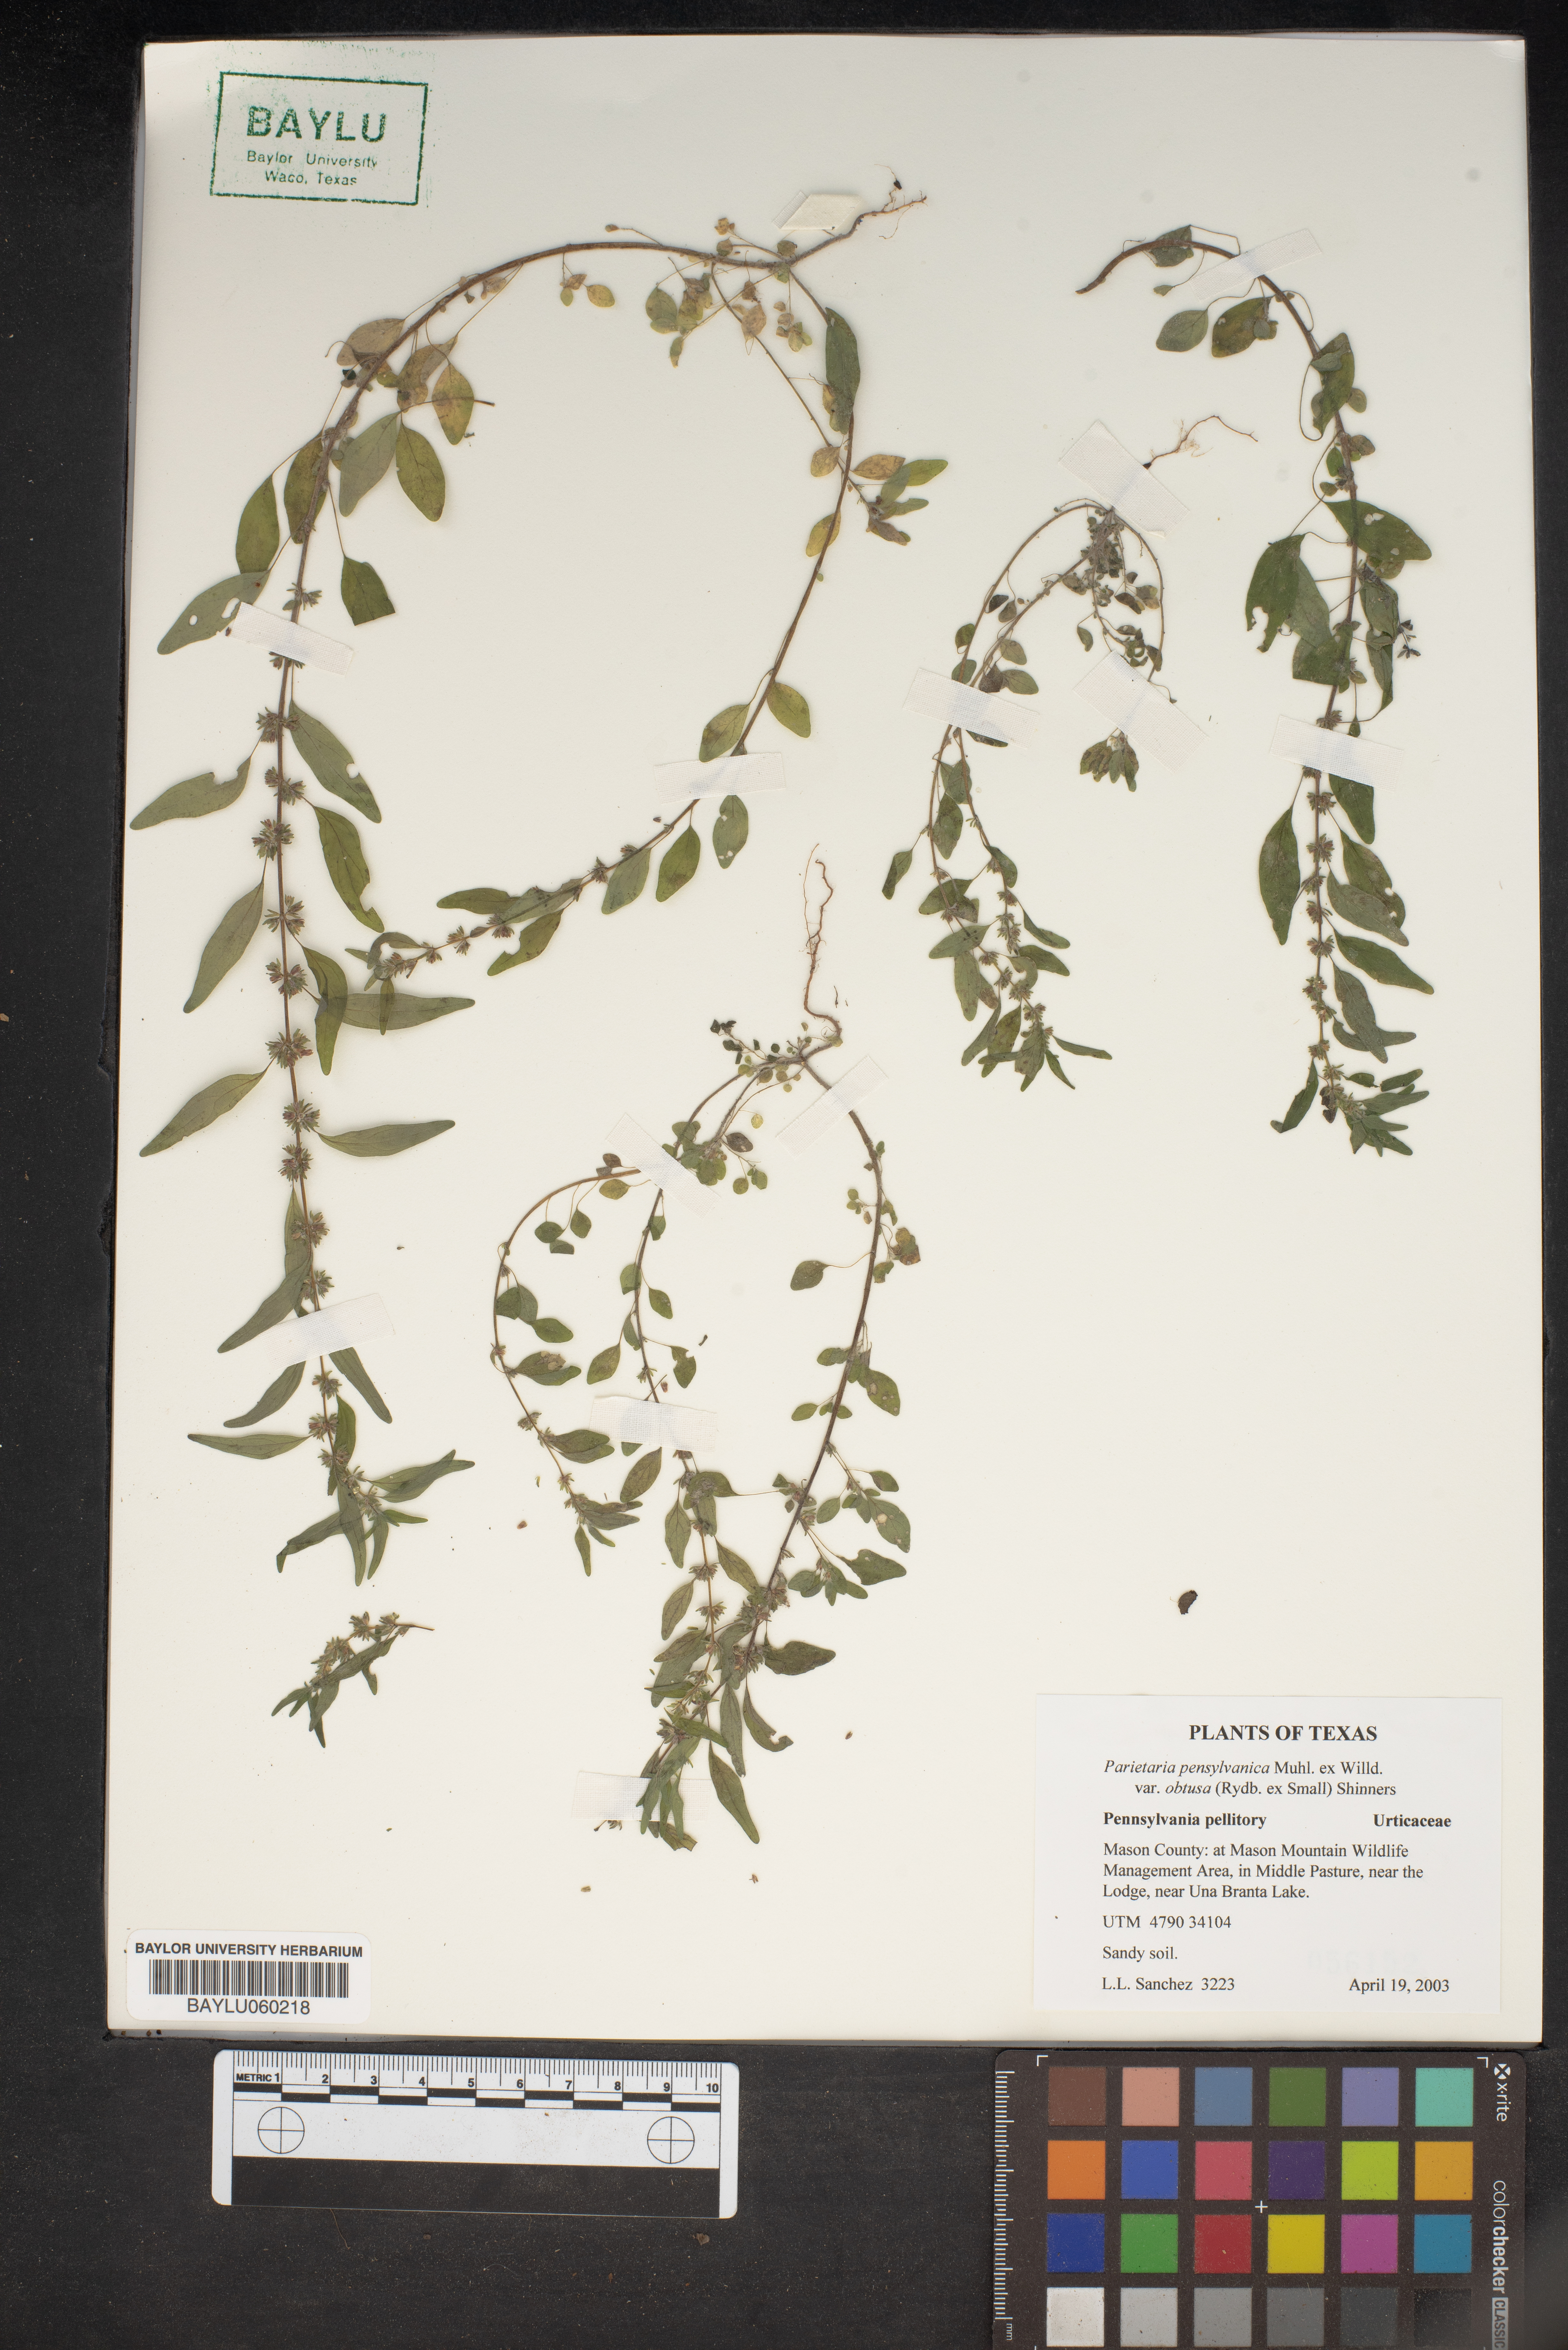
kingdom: Plantae
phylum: Tracheophyta
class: Magnoliopsida
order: Rosales
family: Urticaceae
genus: Parietaria
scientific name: Parietaria
